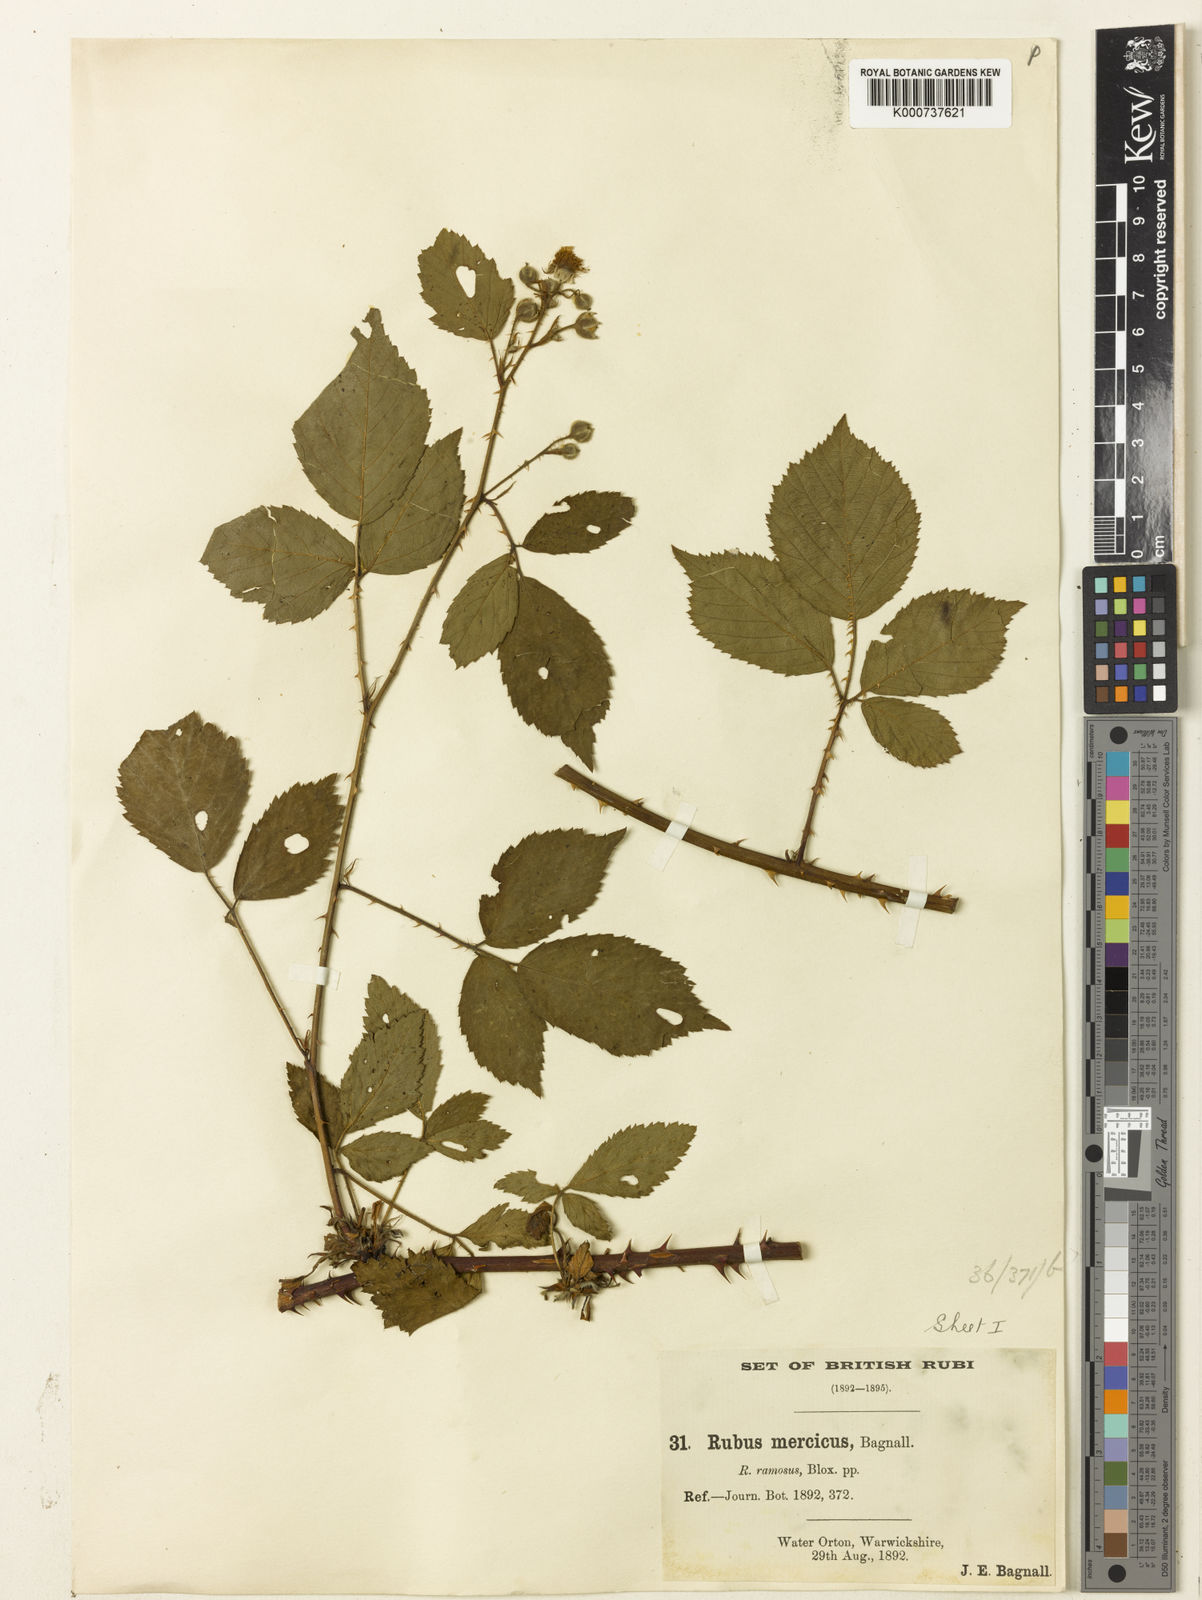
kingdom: Plantae
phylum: Tracheophyta
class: Magnoliopsida
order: Rosales
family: Rosaceae
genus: Rubus
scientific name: Rubus mercicus
